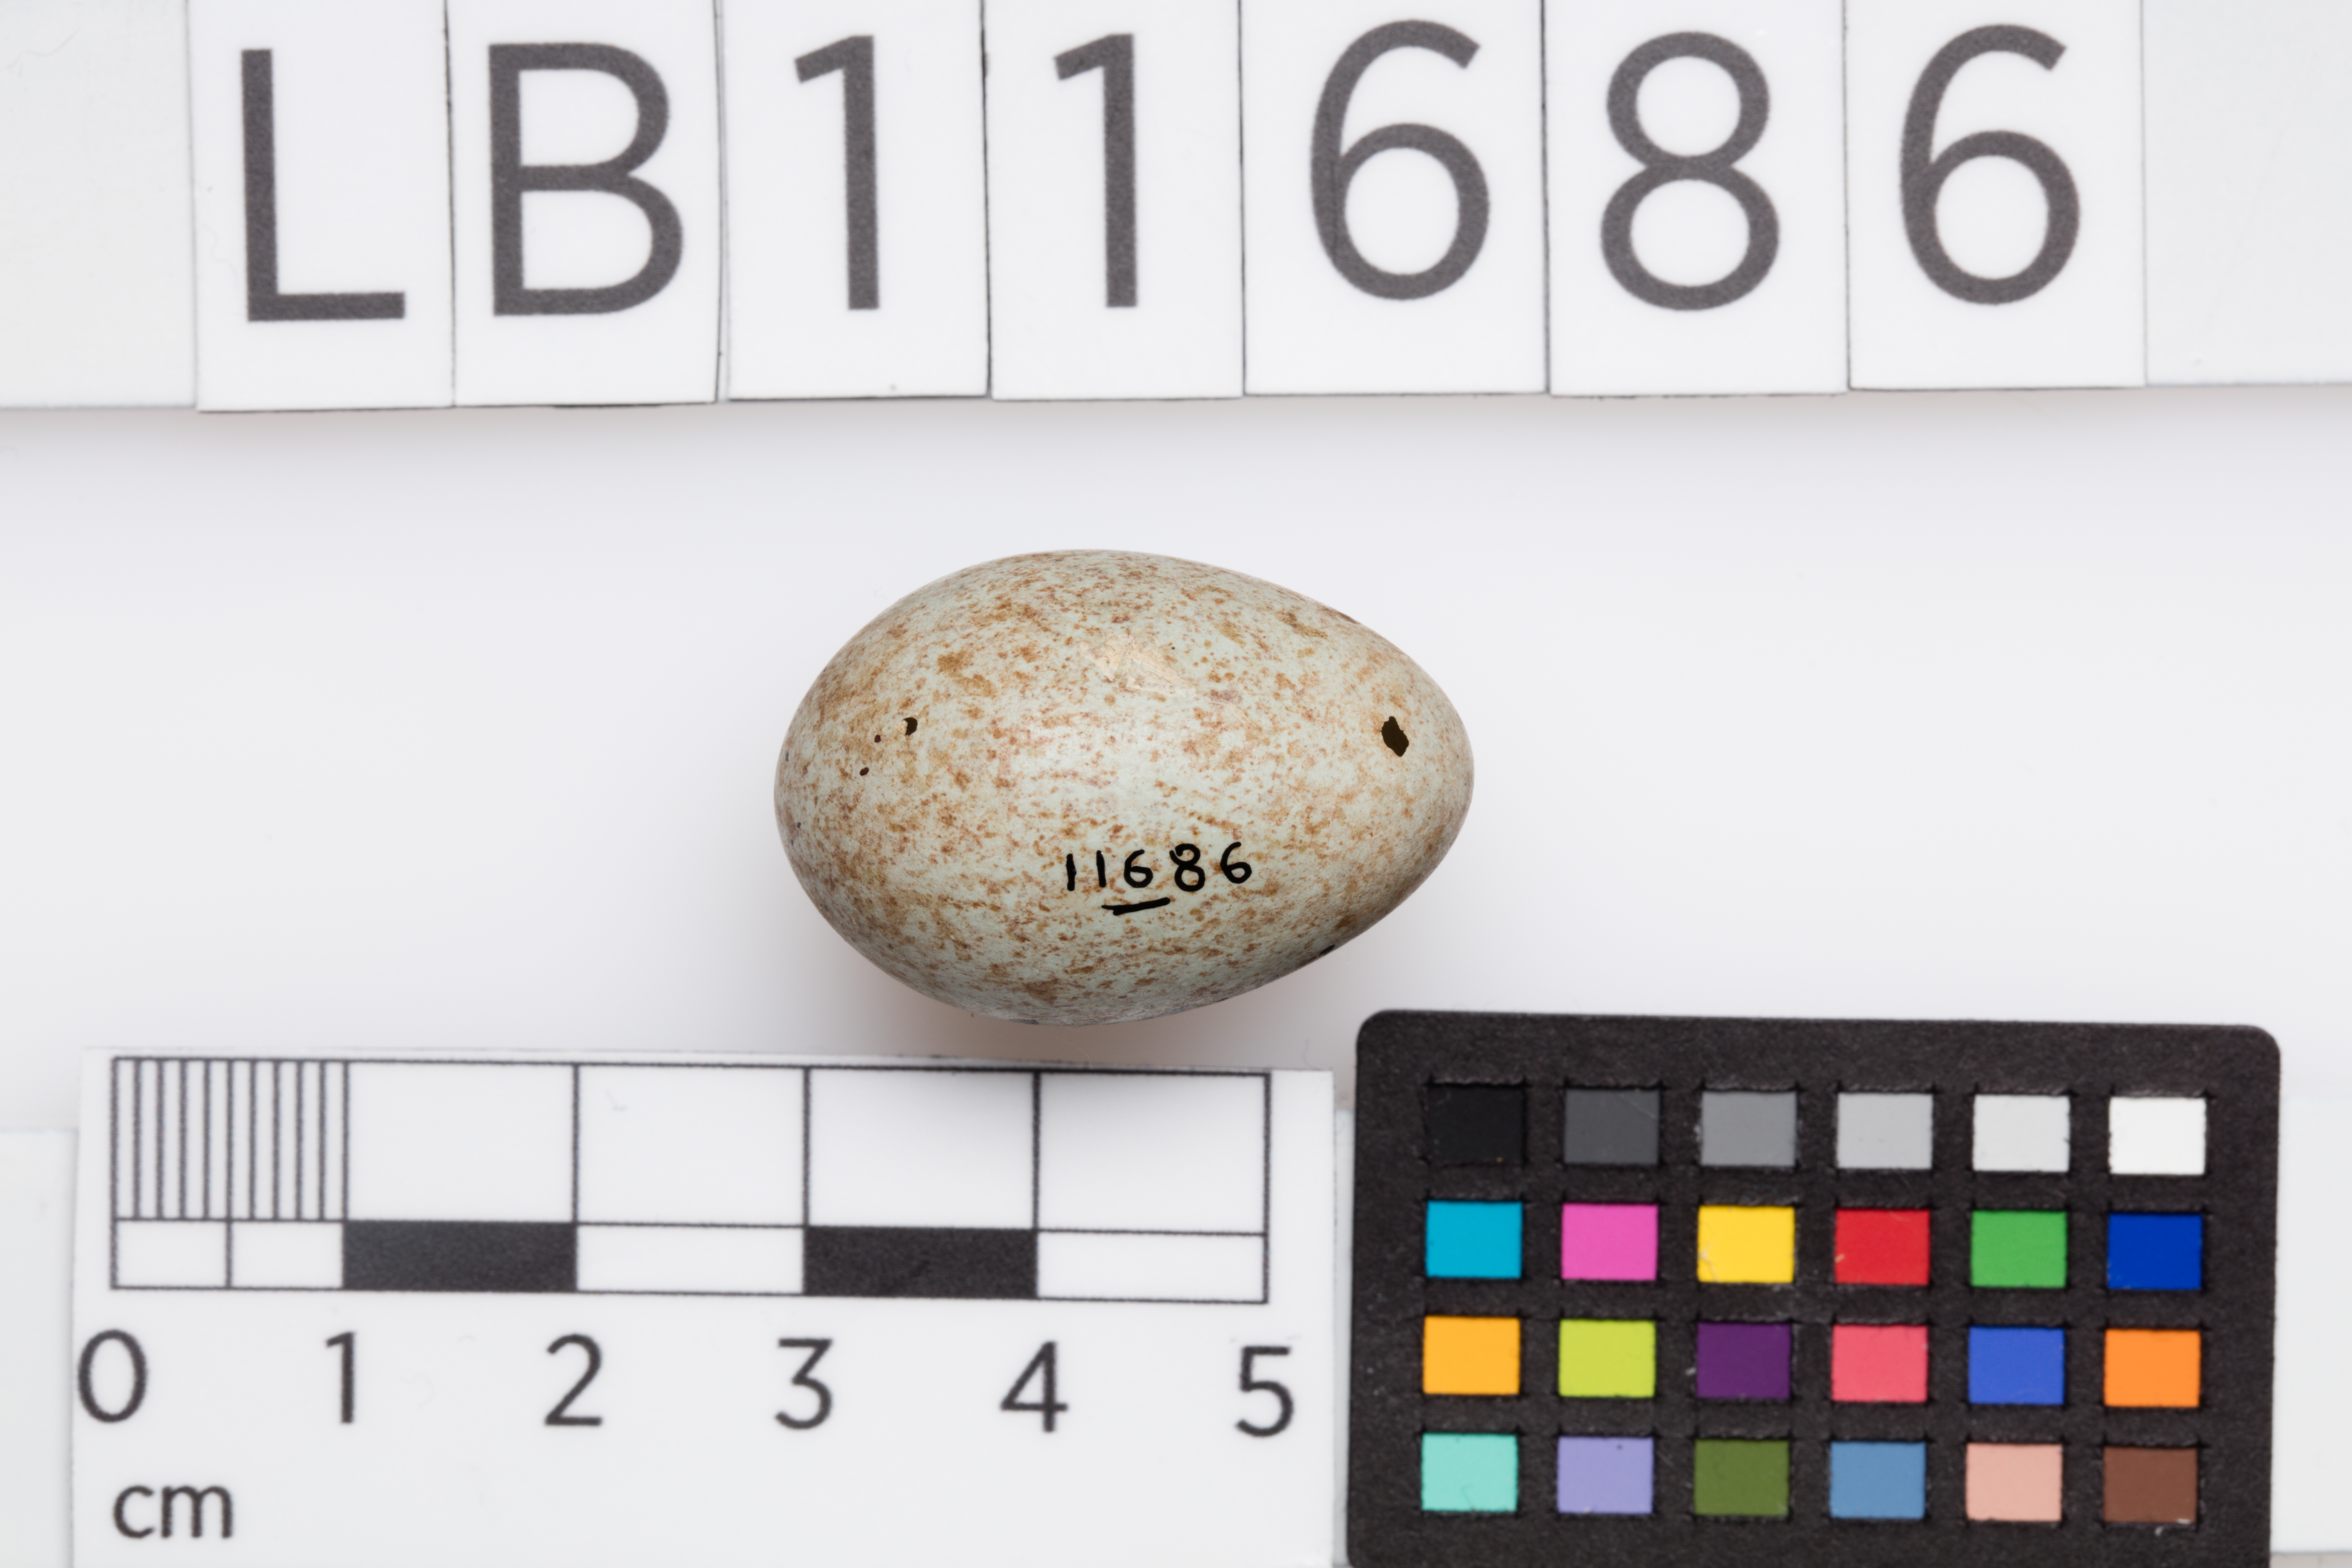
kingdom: Animalia
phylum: Chordata
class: Aves
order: Passeriformes
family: Turdidae
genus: Turdus
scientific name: Turdus merula
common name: Common blackbird
